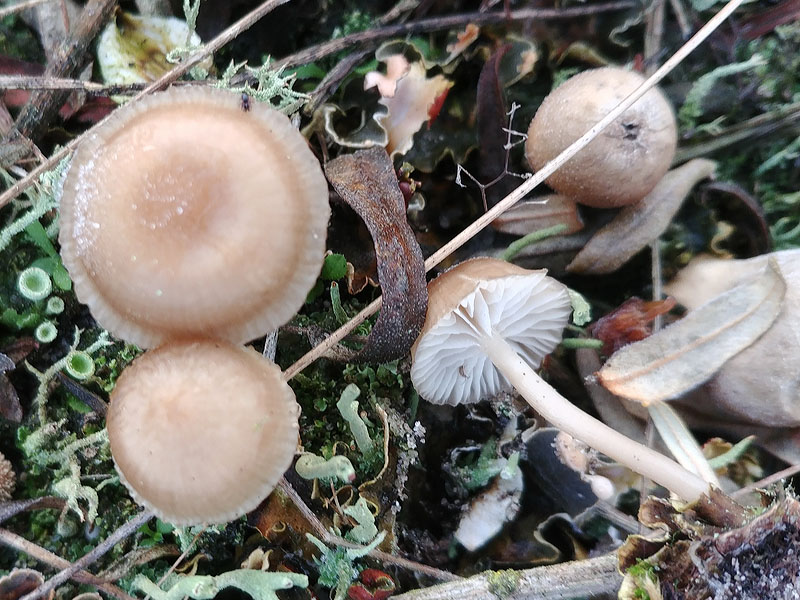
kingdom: Fungi
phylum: Basidiomycota
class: Agaricomycetes
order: Agaricales
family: Tricholomataceae
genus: Gamundia
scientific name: Gamundia xerophila
